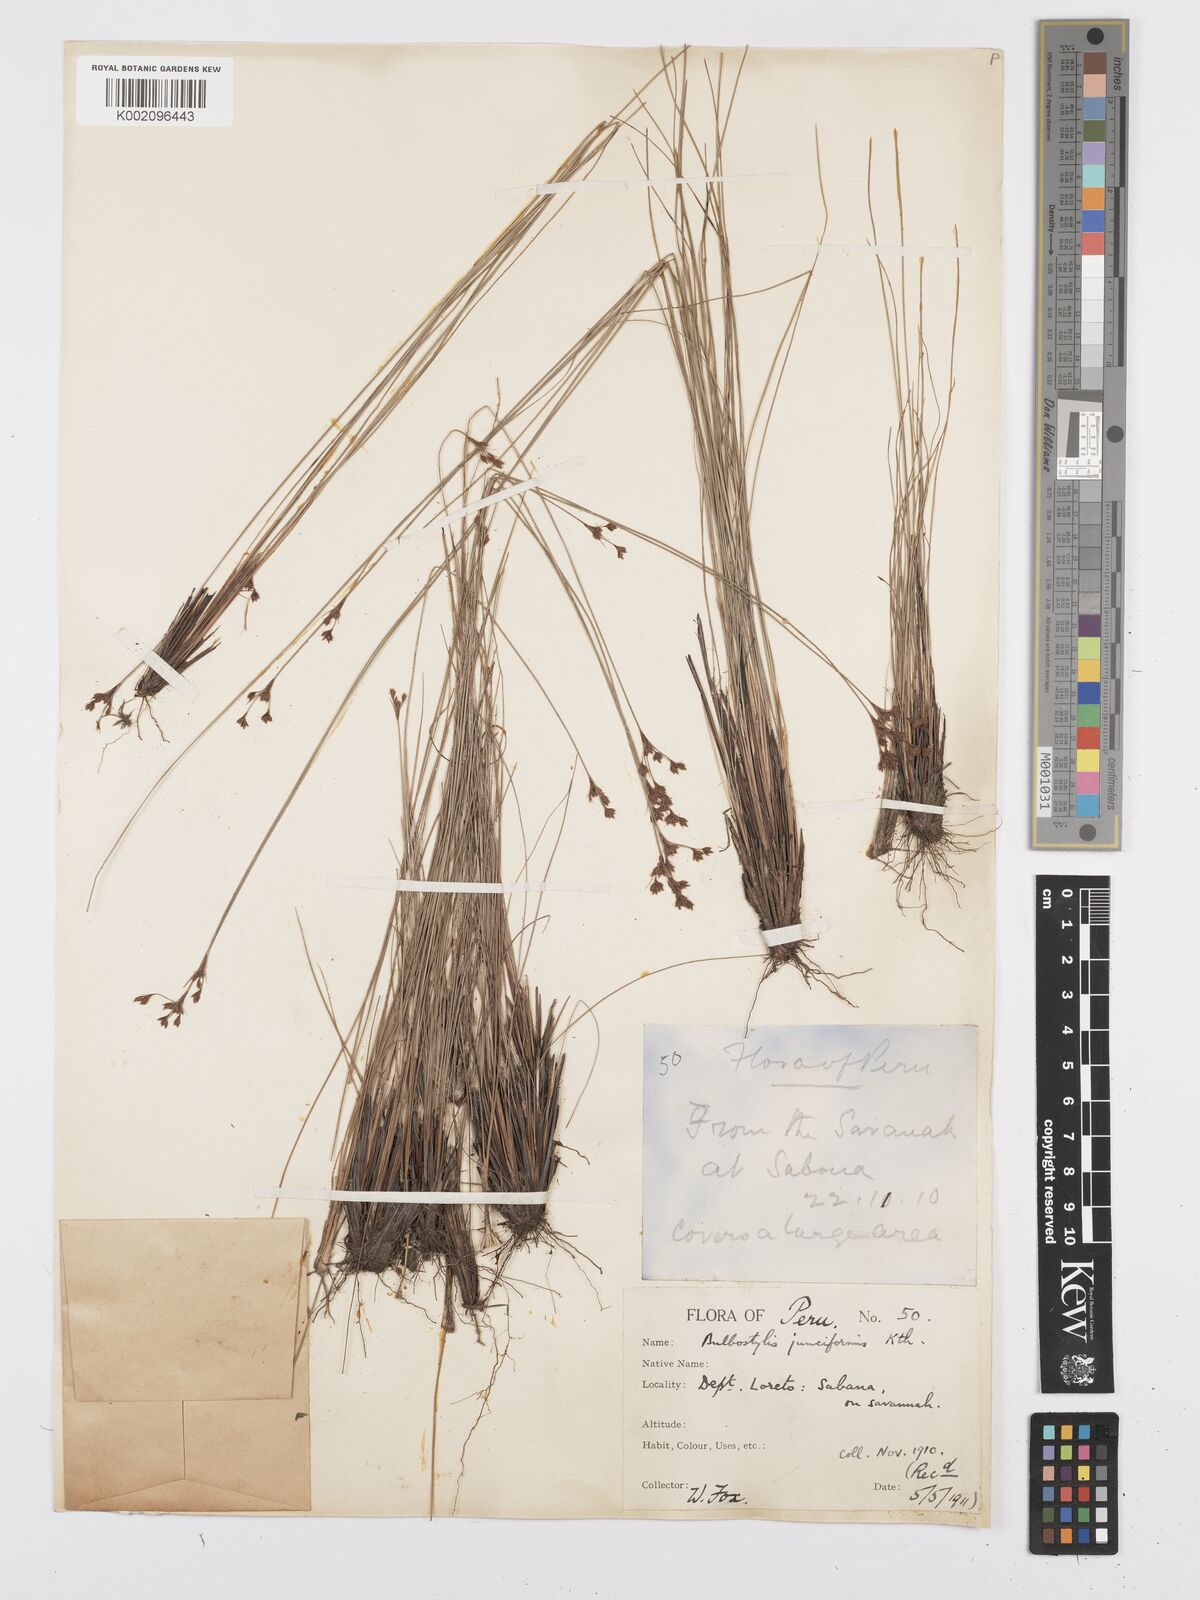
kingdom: Plantae
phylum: Tracheophyta
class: Liliopsida
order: Poales
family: Cyperaceae
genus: Bulbostylis
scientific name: Bulbostylis junciformis
